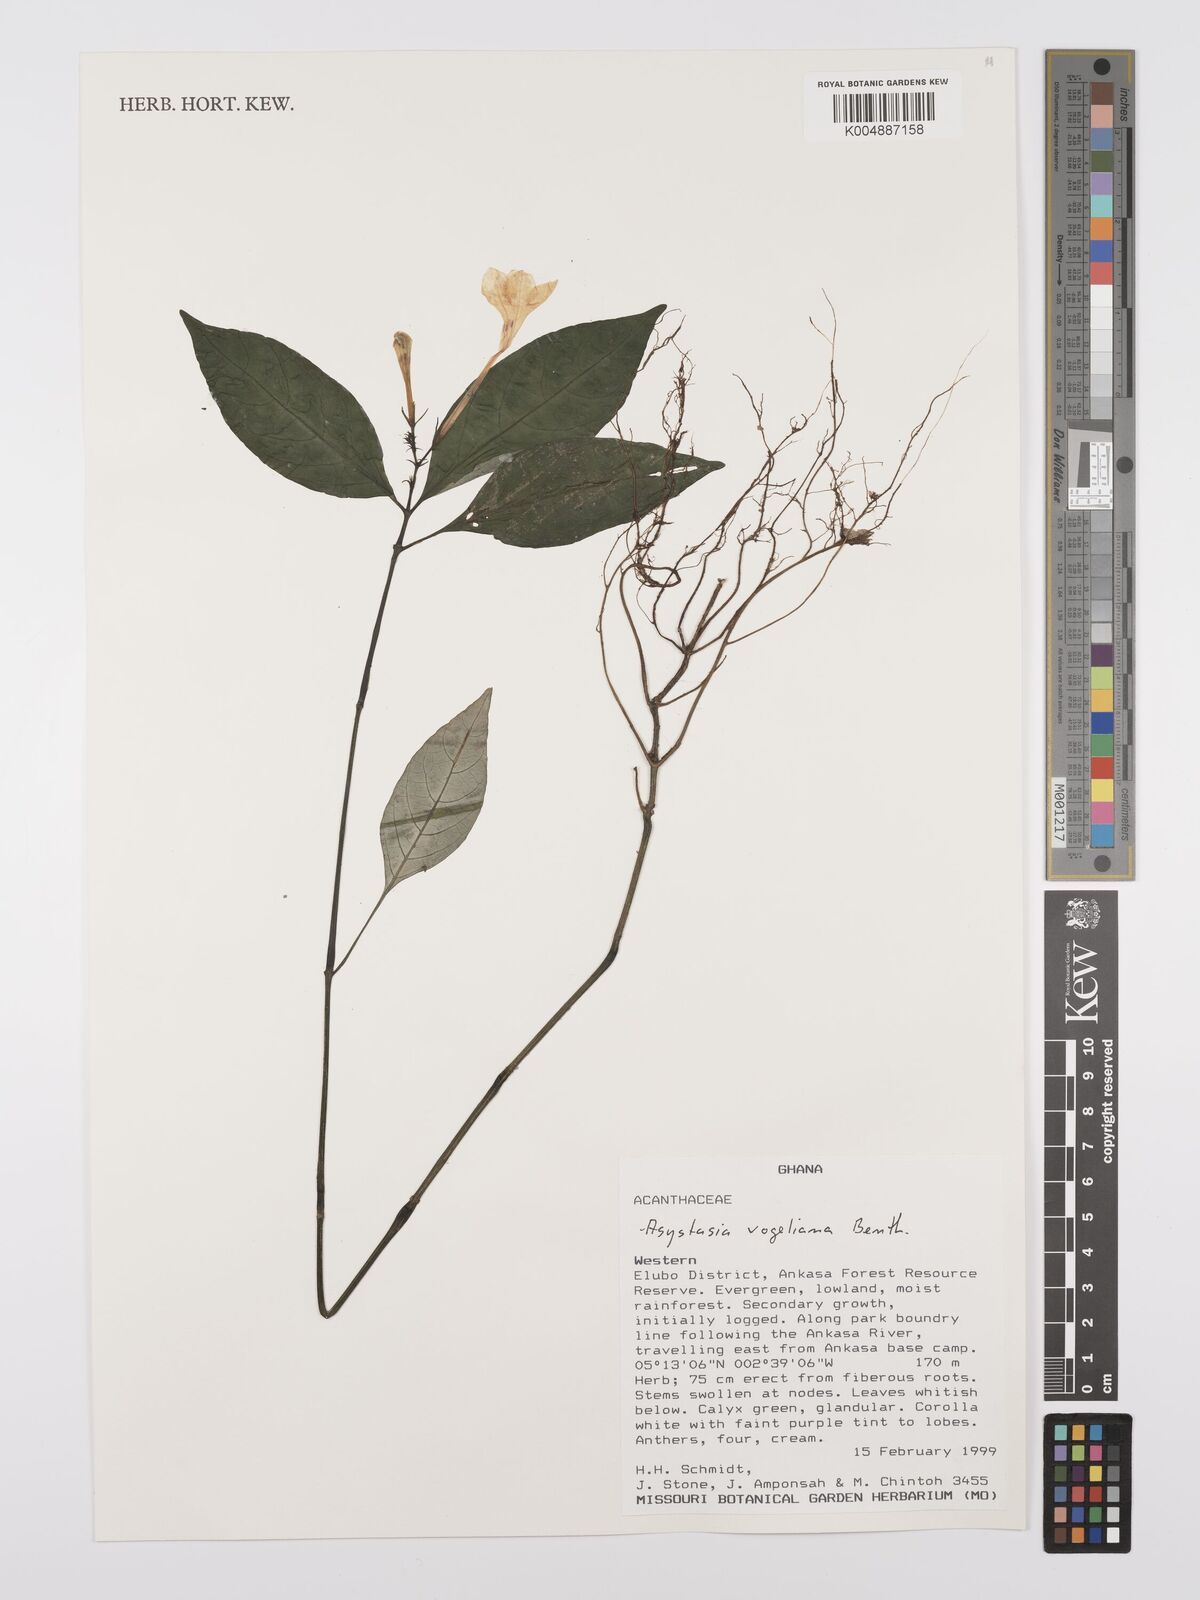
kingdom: Plantae
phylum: Tracheophyta
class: Magnoliopsida
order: Lamiales
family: Acanthaceae
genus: Asystasia
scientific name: Asystasia vogeliana
